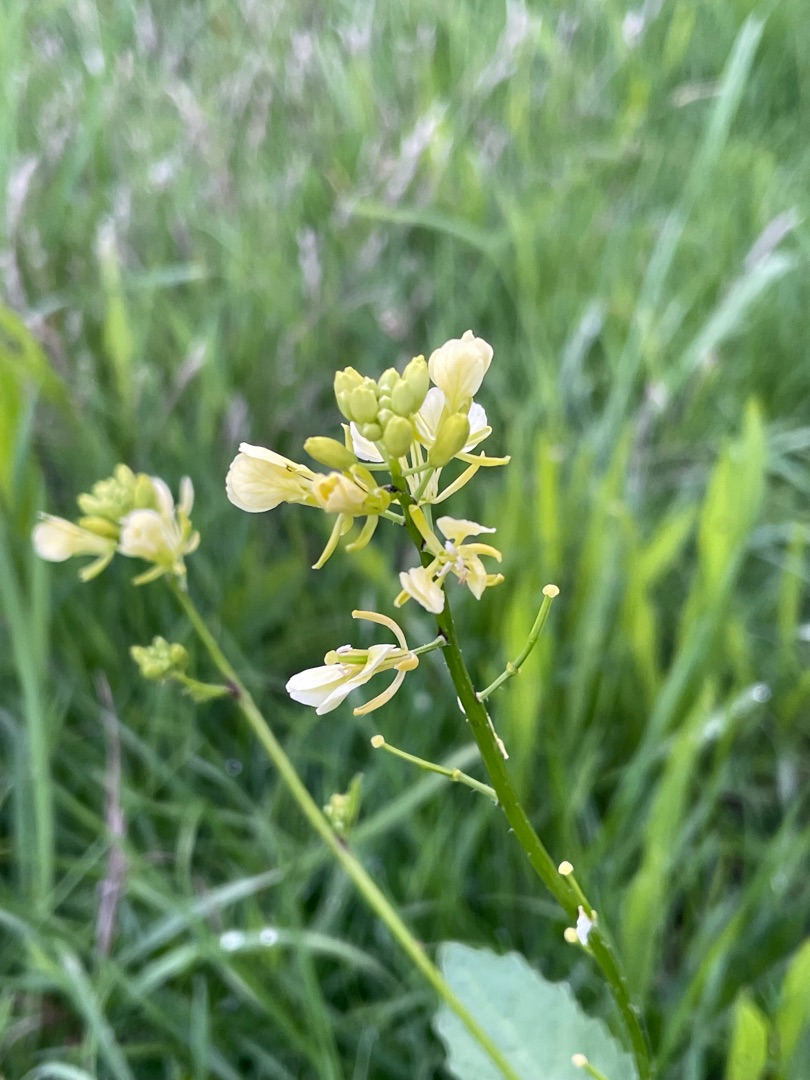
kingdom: Plantae
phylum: Tracheophyta
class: Magnoliopsida
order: Brassicales
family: Brassicaceae
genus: Sinapis
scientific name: Sinapis arvensis
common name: Ager-sennep
